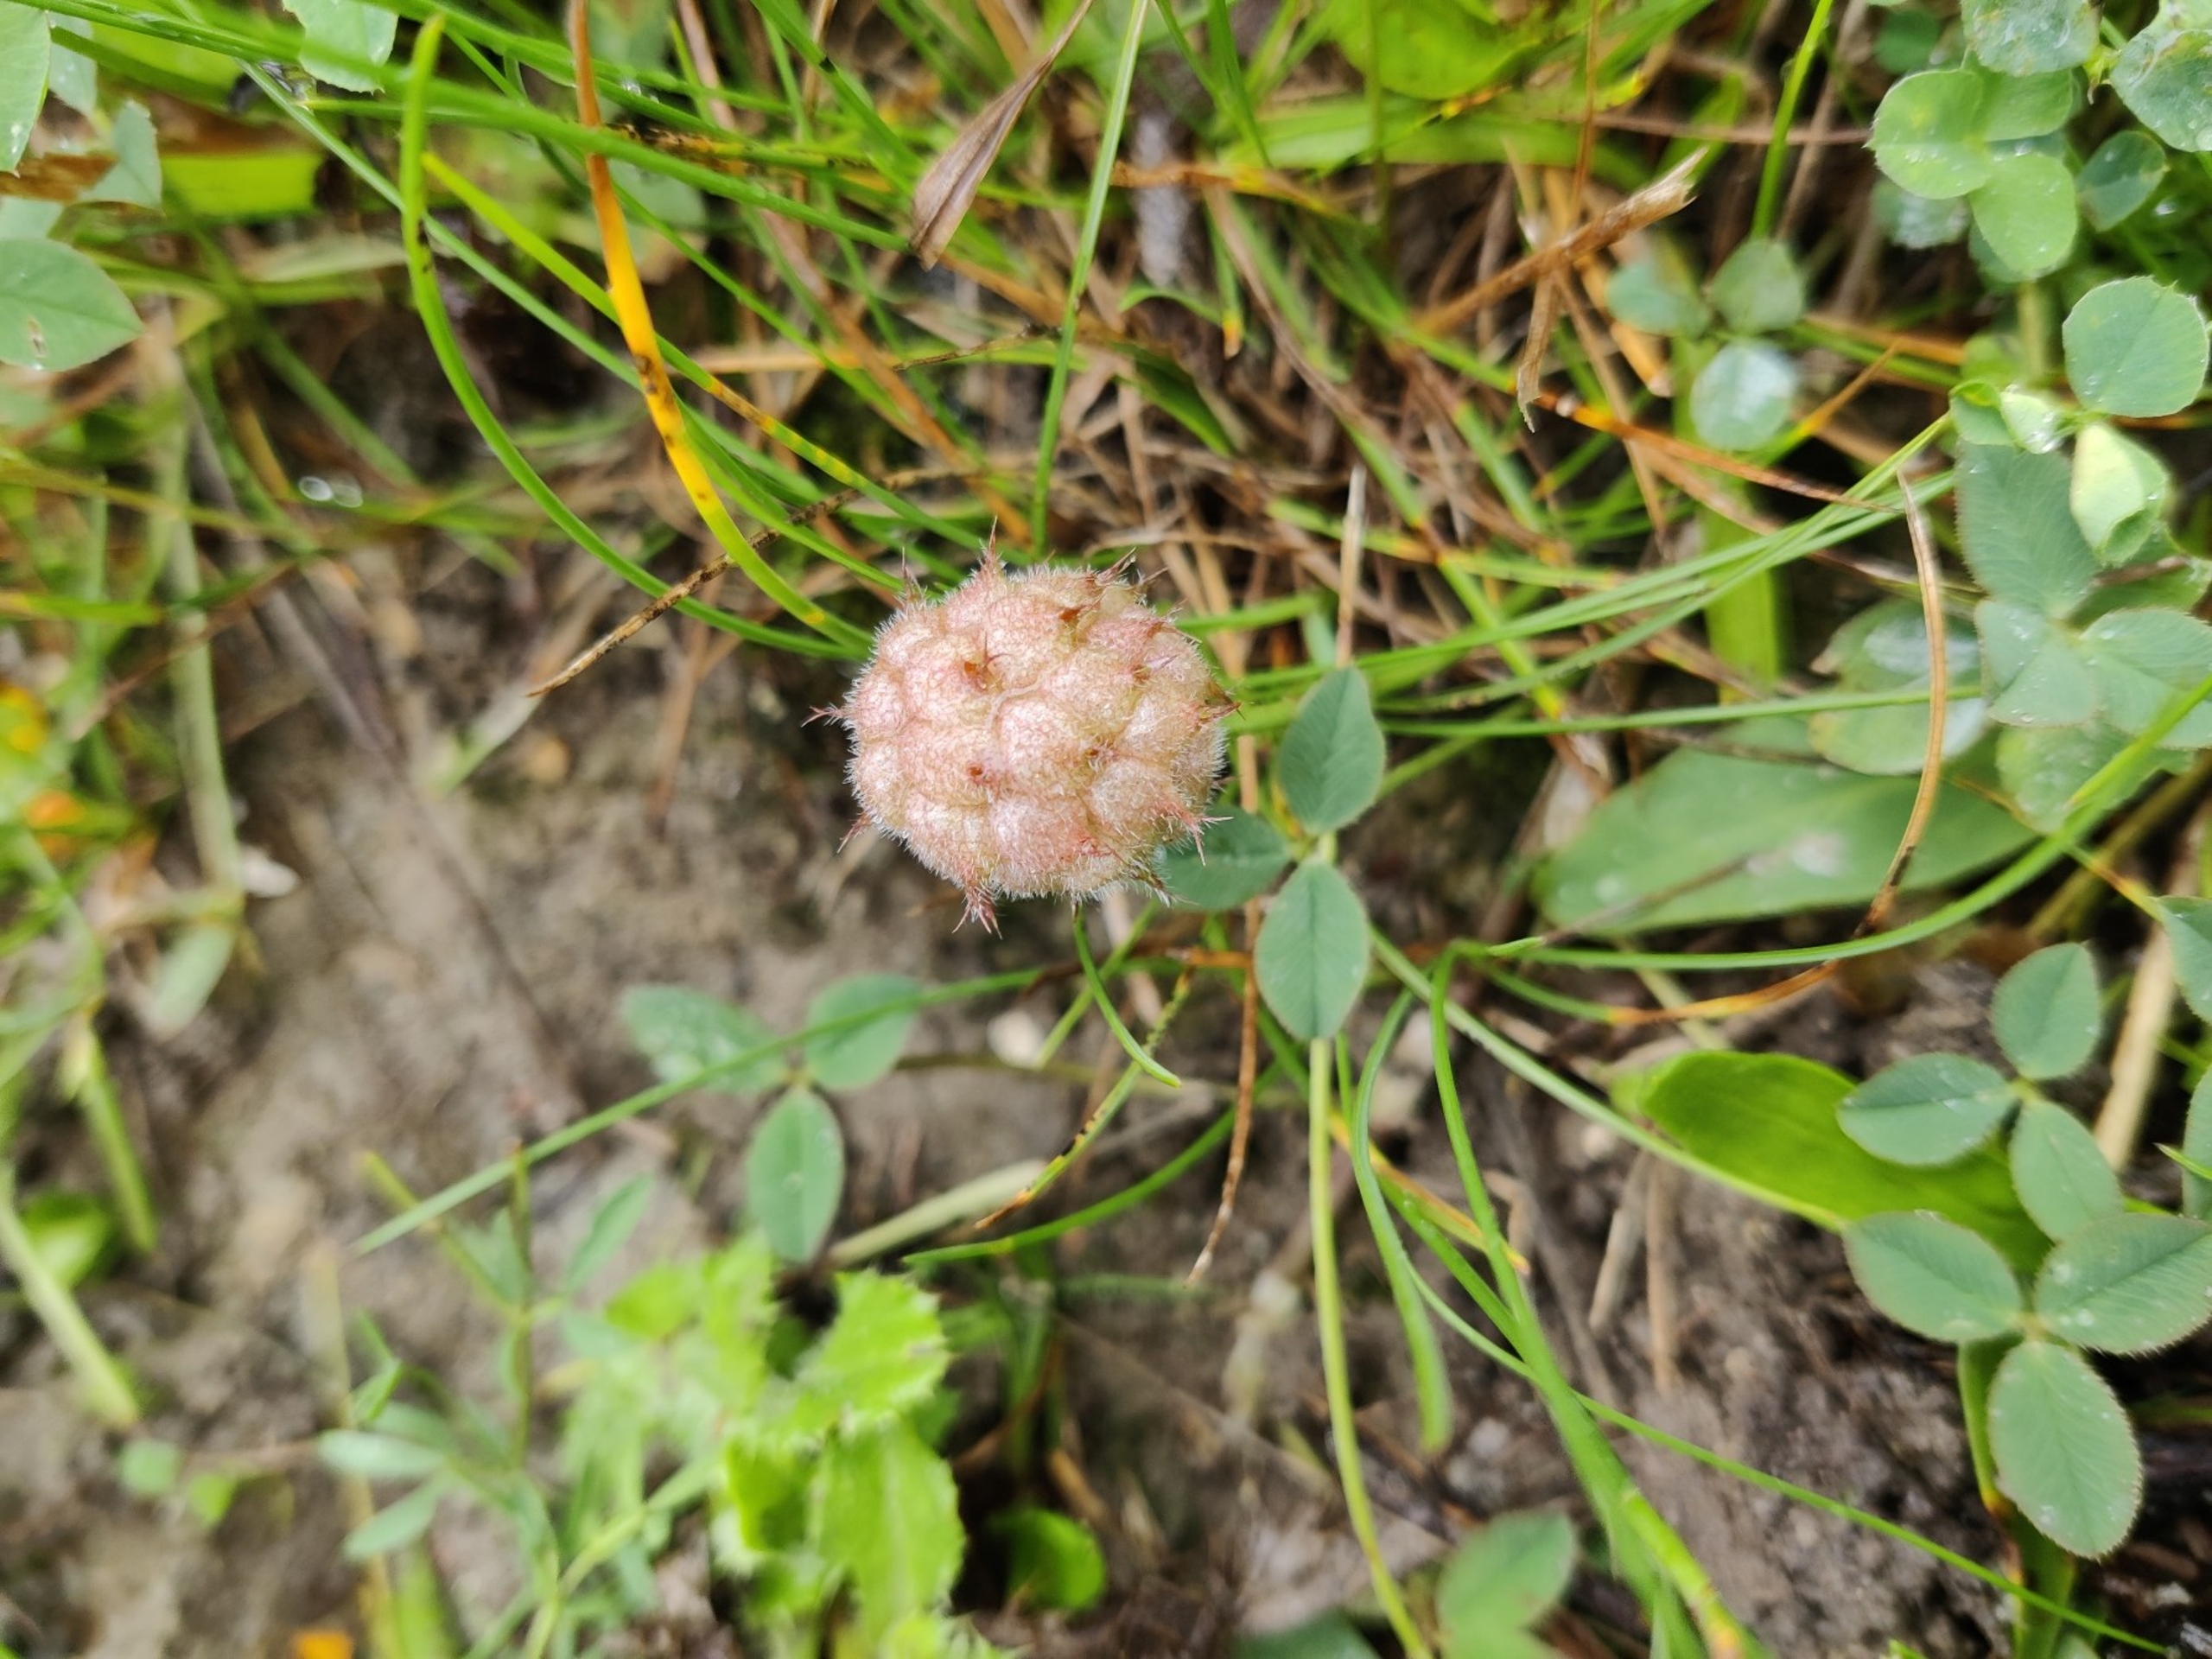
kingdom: Plantae
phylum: Tracheophyta
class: Magnoliopsida
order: Fabales
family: Fabaceae
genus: Trifolium
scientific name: Trifolium fragiferum
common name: Jordbær-kløver
